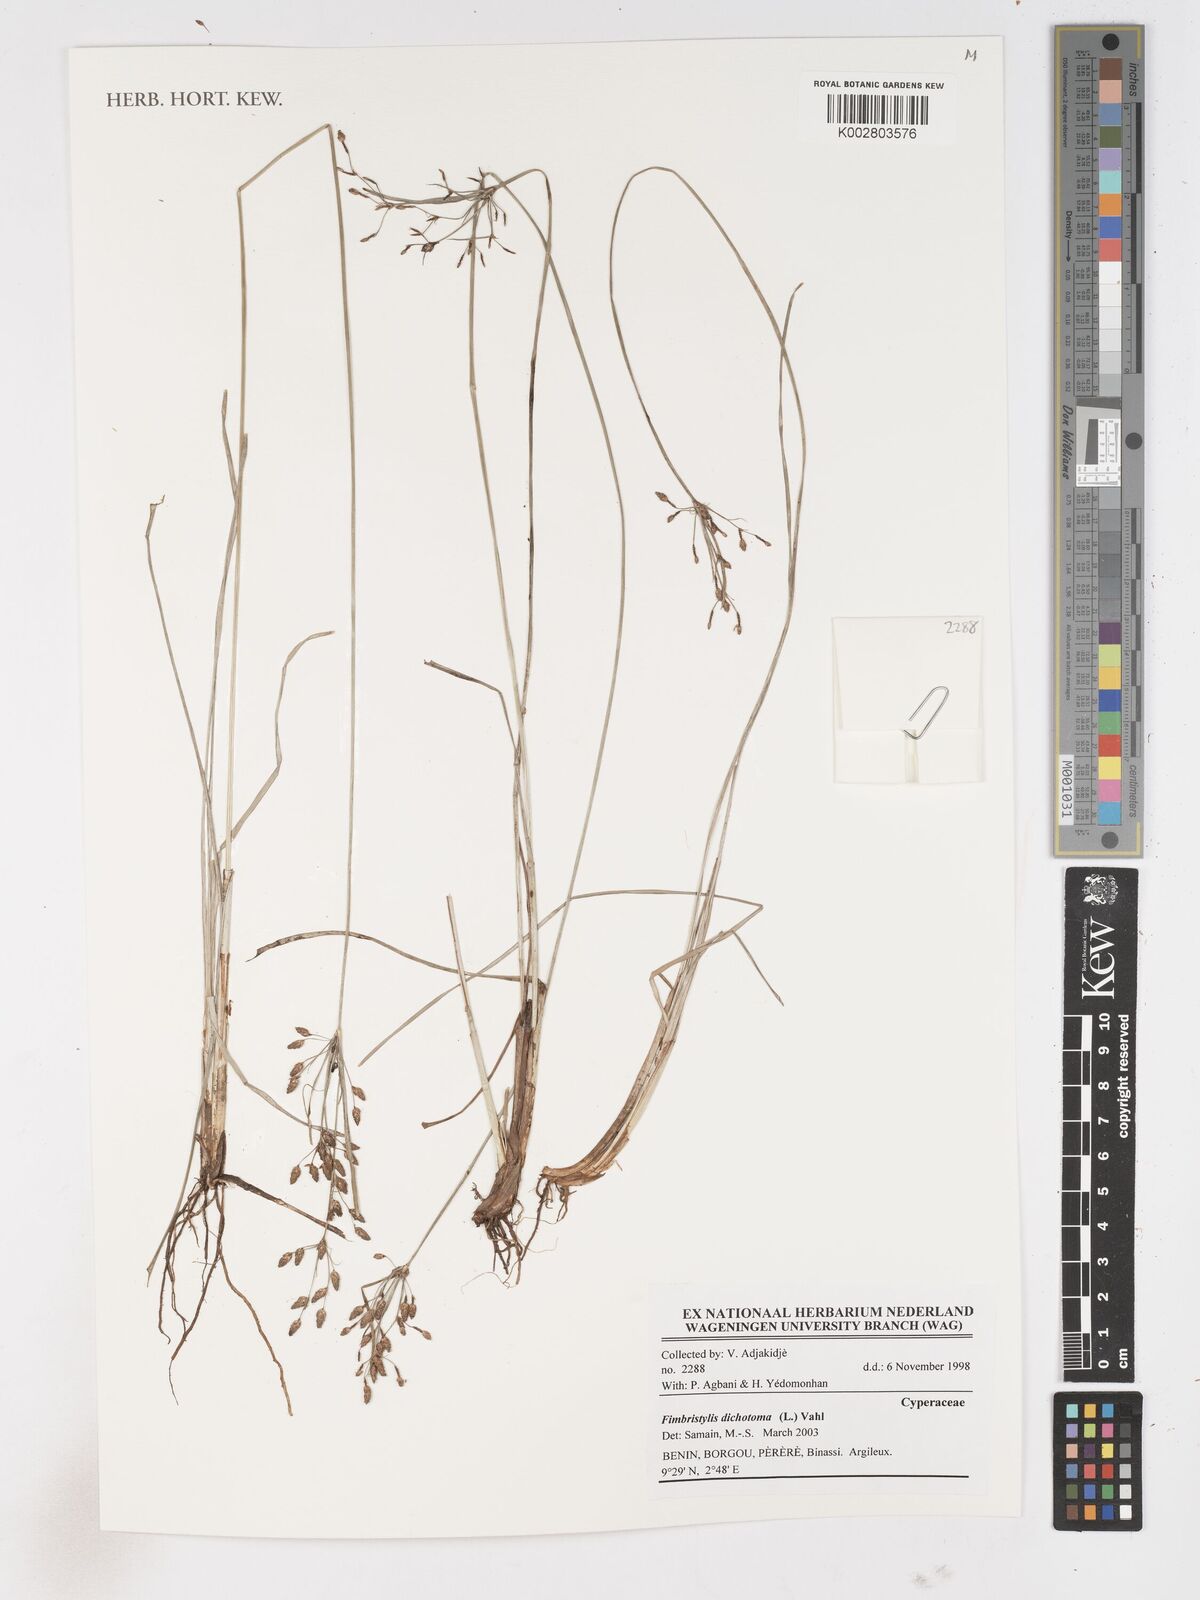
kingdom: Plantae
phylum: Tracheophyta
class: Liliopsida
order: Poales
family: Cyperaceae
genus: Fimbristylis
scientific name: Fimbristylis dichotoma
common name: Forked fimbry
